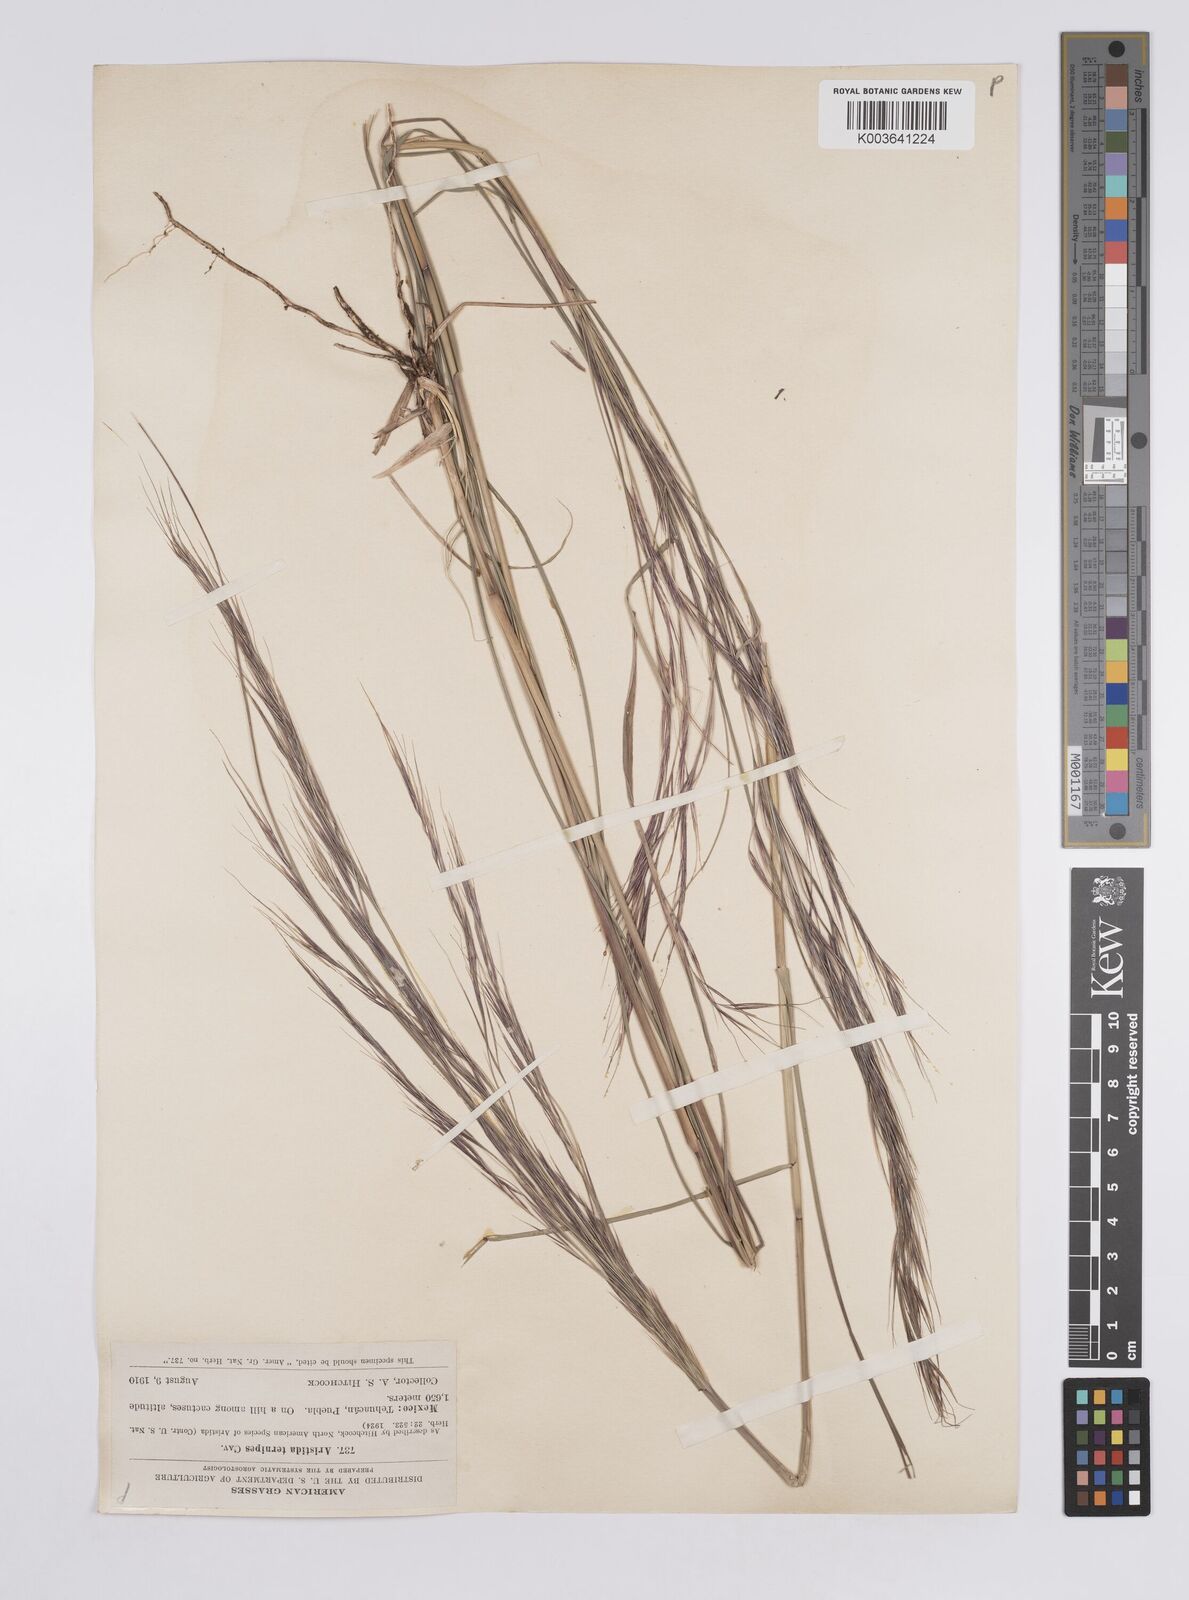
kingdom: Plantae
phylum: Tracheophyta
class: Liliopsida
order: Poales
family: Poaceae
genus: Aristida
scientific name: Aristida
